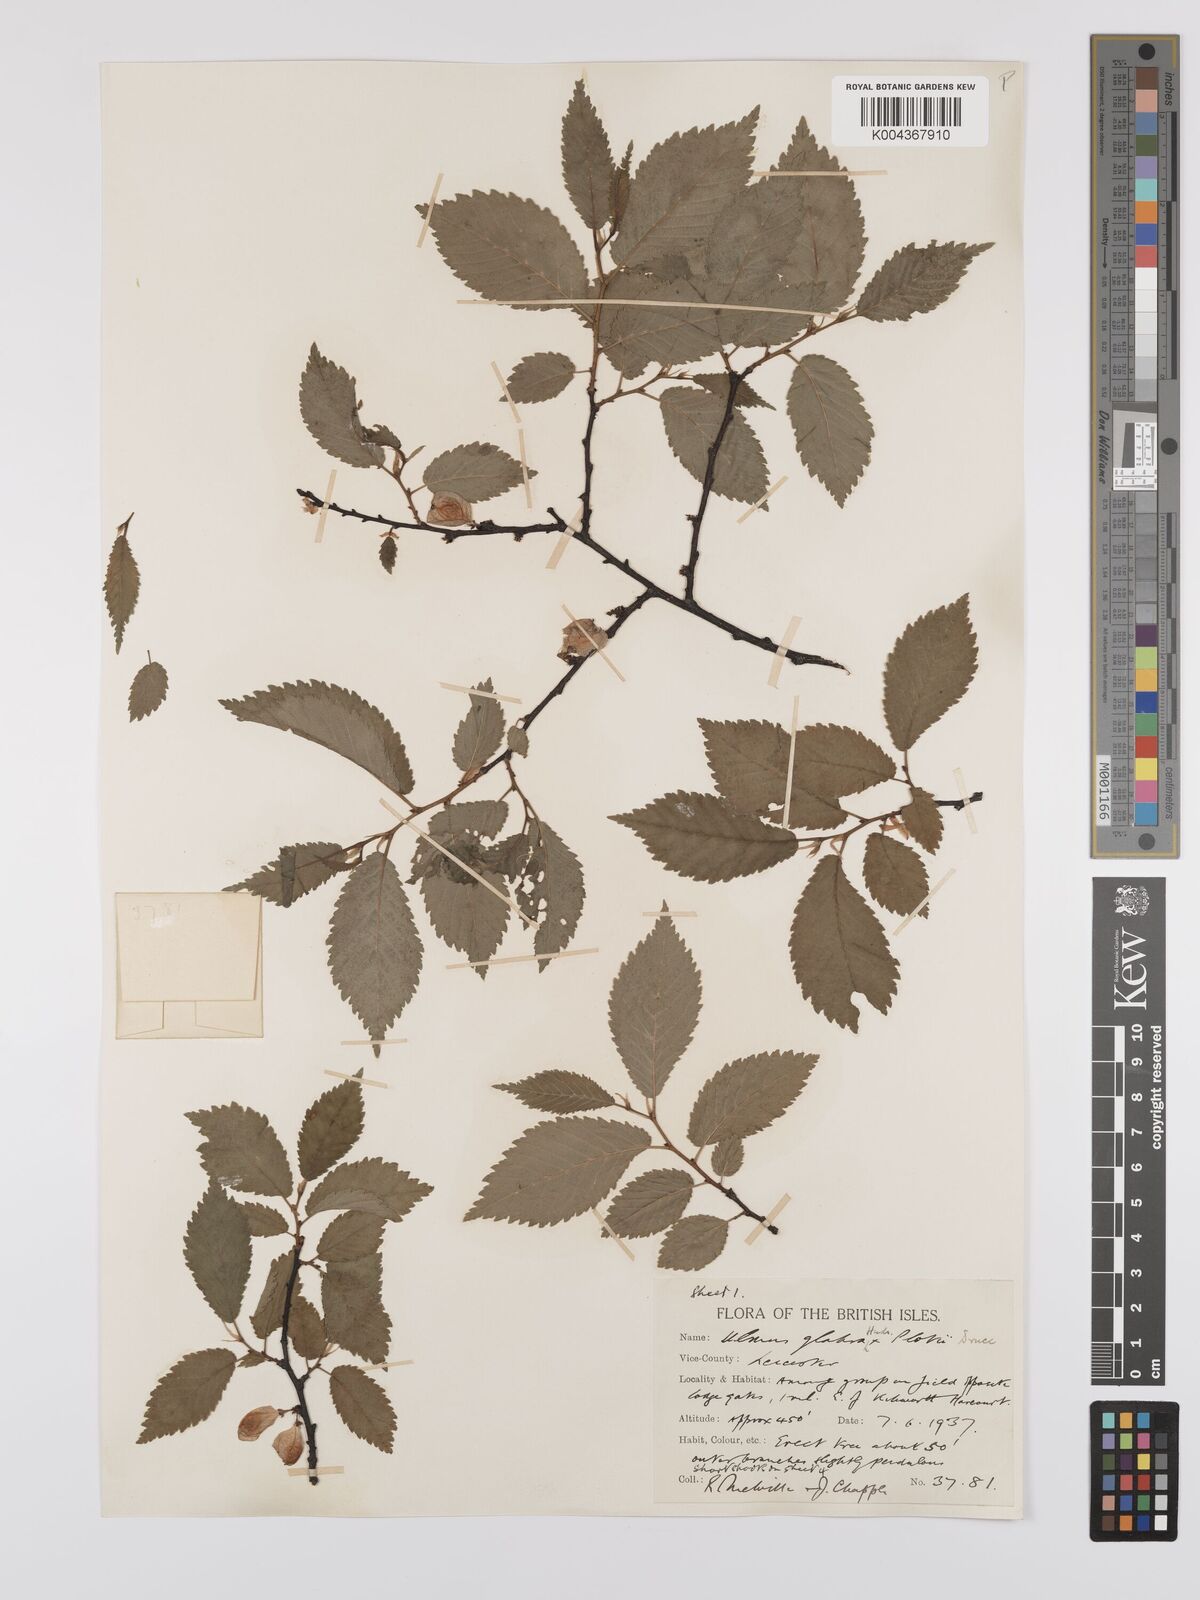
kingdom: Plantae
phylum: Tracheophyta
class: Magnoliopsida
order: Rosales
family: Ulmaceae
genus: Ulmus
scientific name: Ulmus
